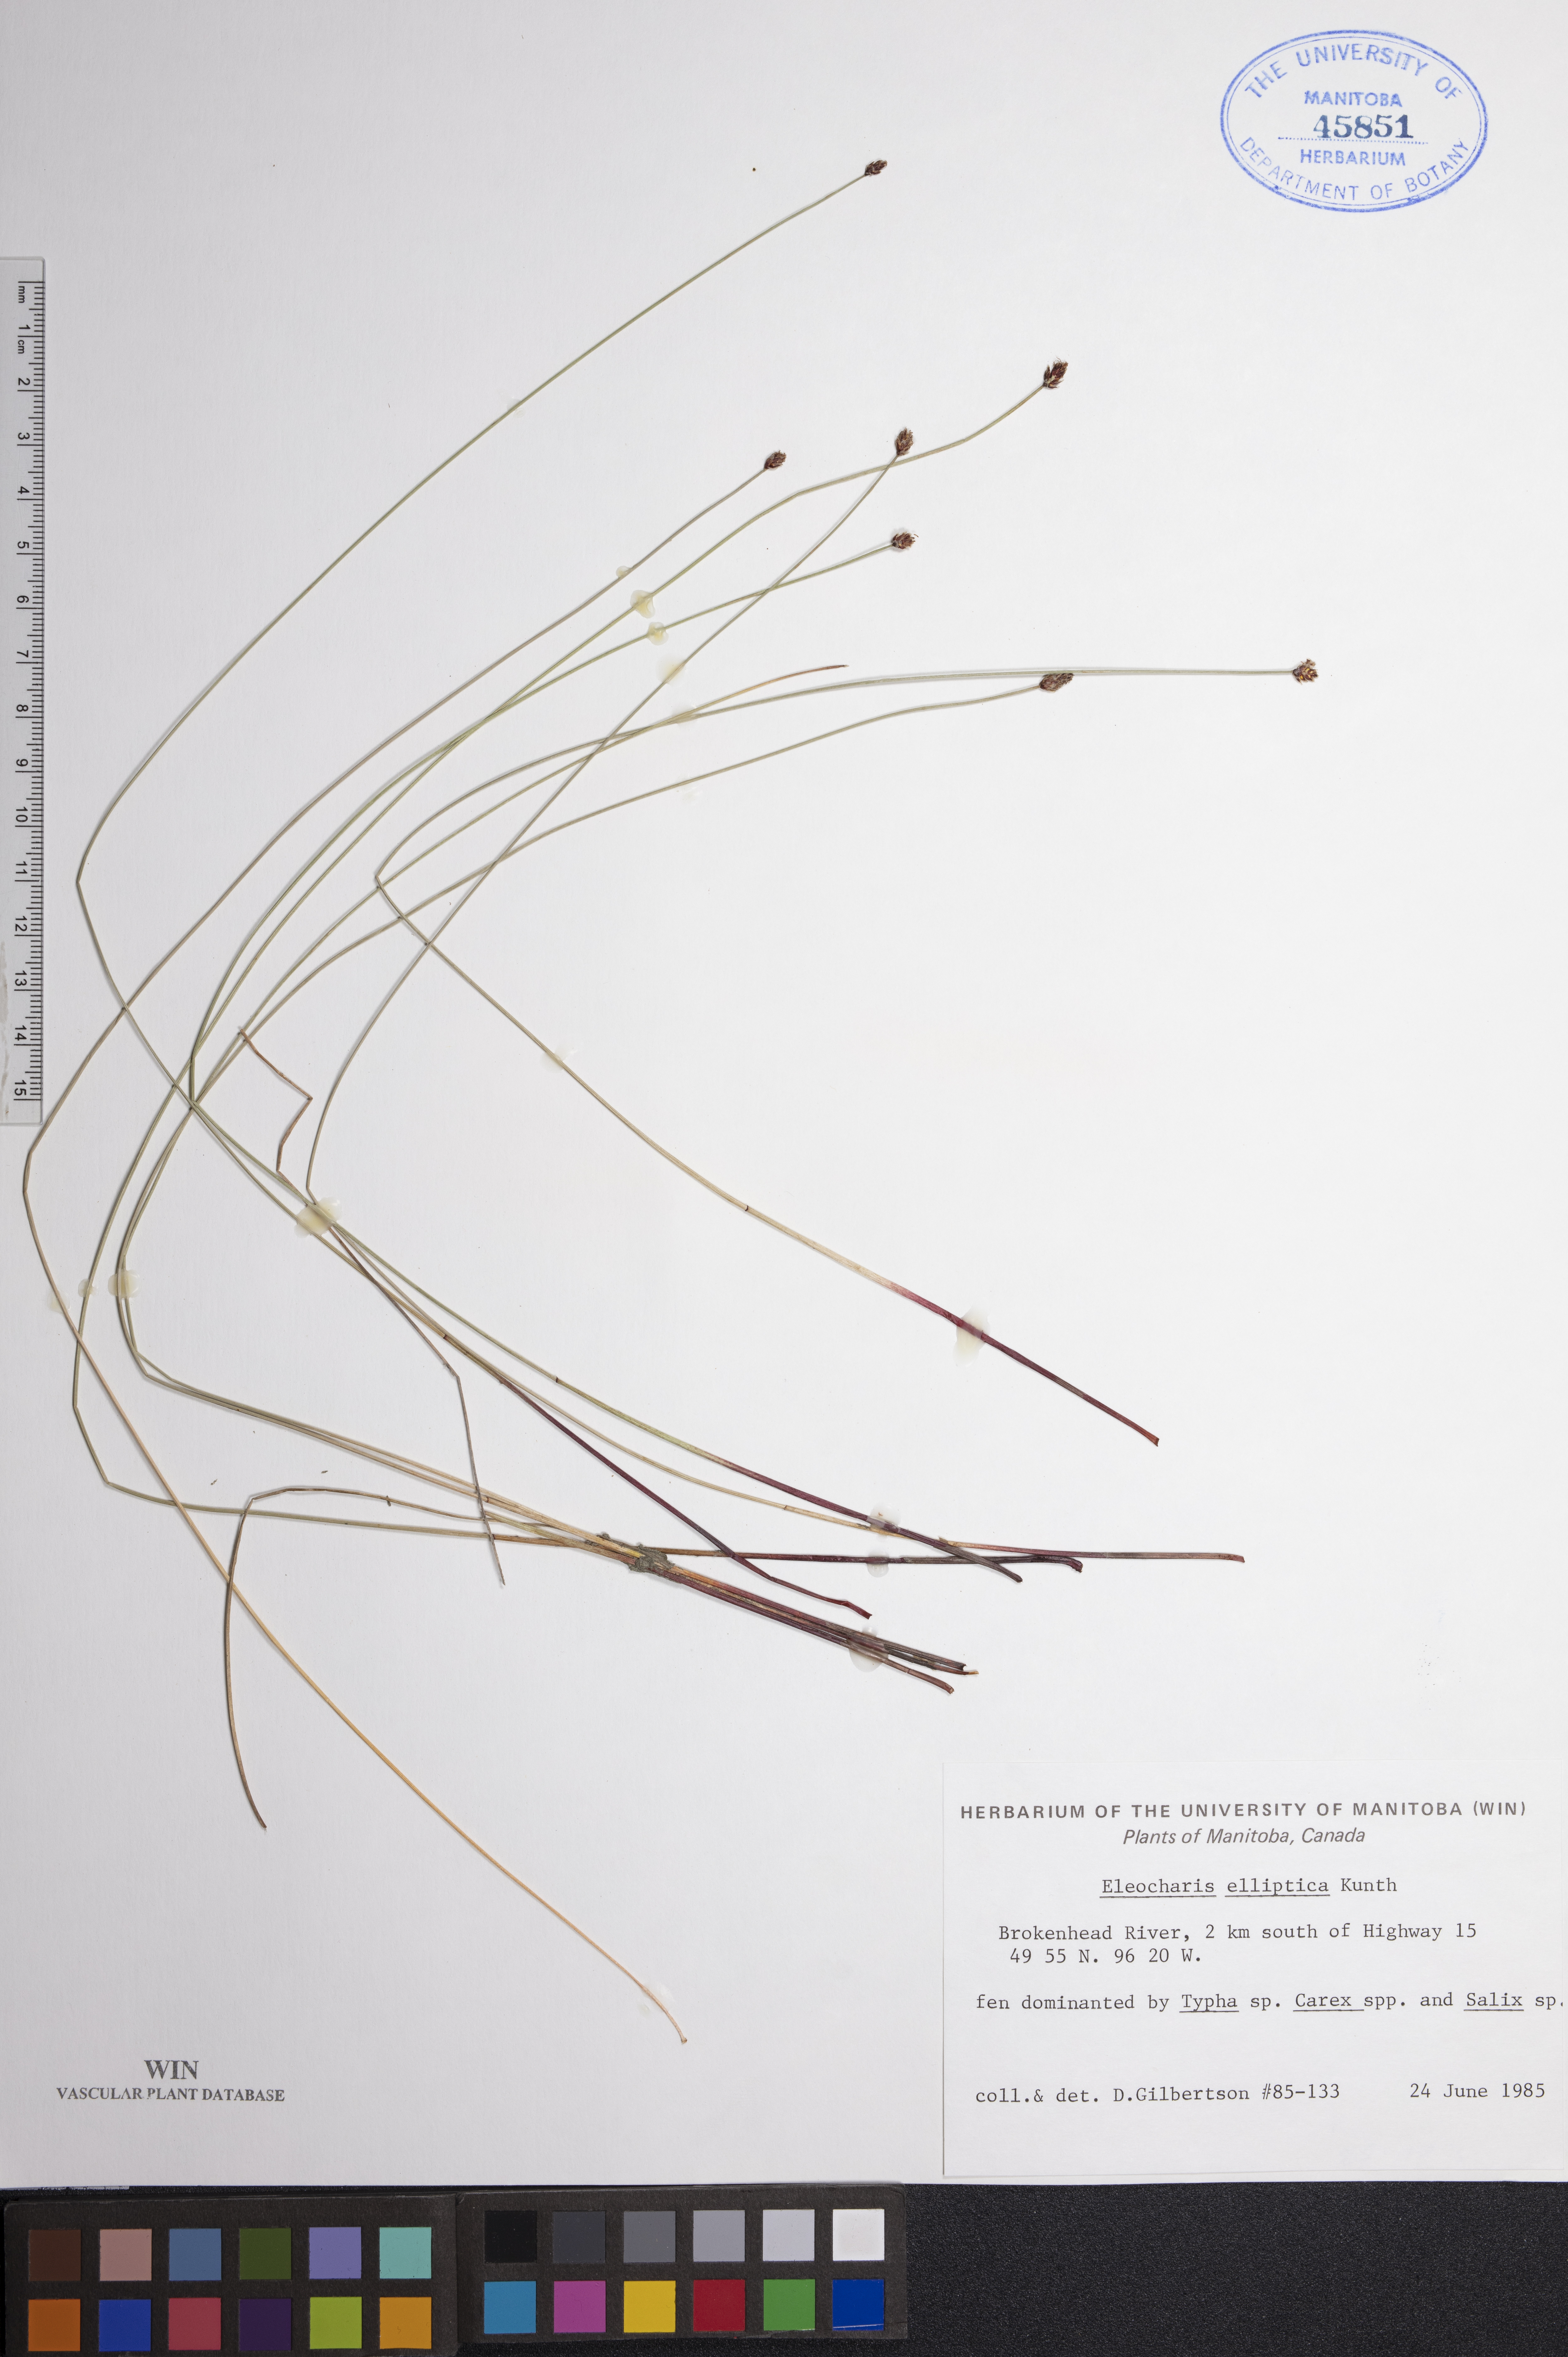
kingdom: Plantae
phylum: Tracheophyta
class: Liliopsida
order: Poales
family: Cyperaceae
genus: Eleocharis
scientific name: Eleocharis elliptica
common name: Capitate spikerush
